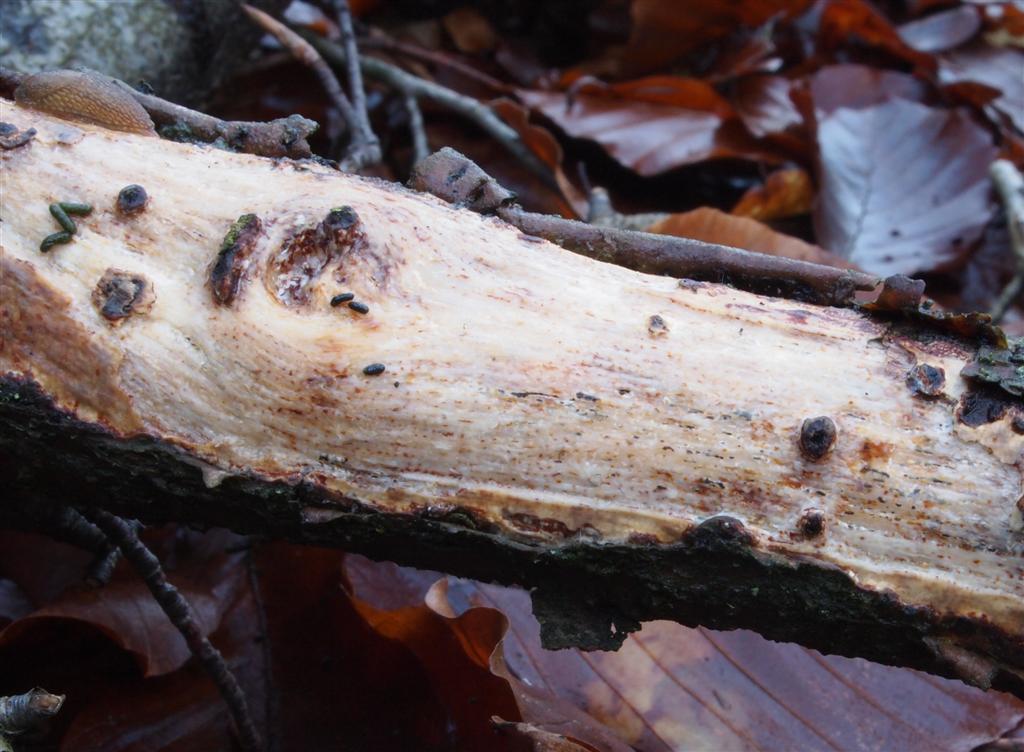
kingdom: Fungi
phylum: Basidiomycota
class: Agaricomycetes
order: Corticiales
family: Vuilleminiaceae
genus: Vuilleminia
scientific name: Vuilleminia comedens
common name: almindelig barksprænger
